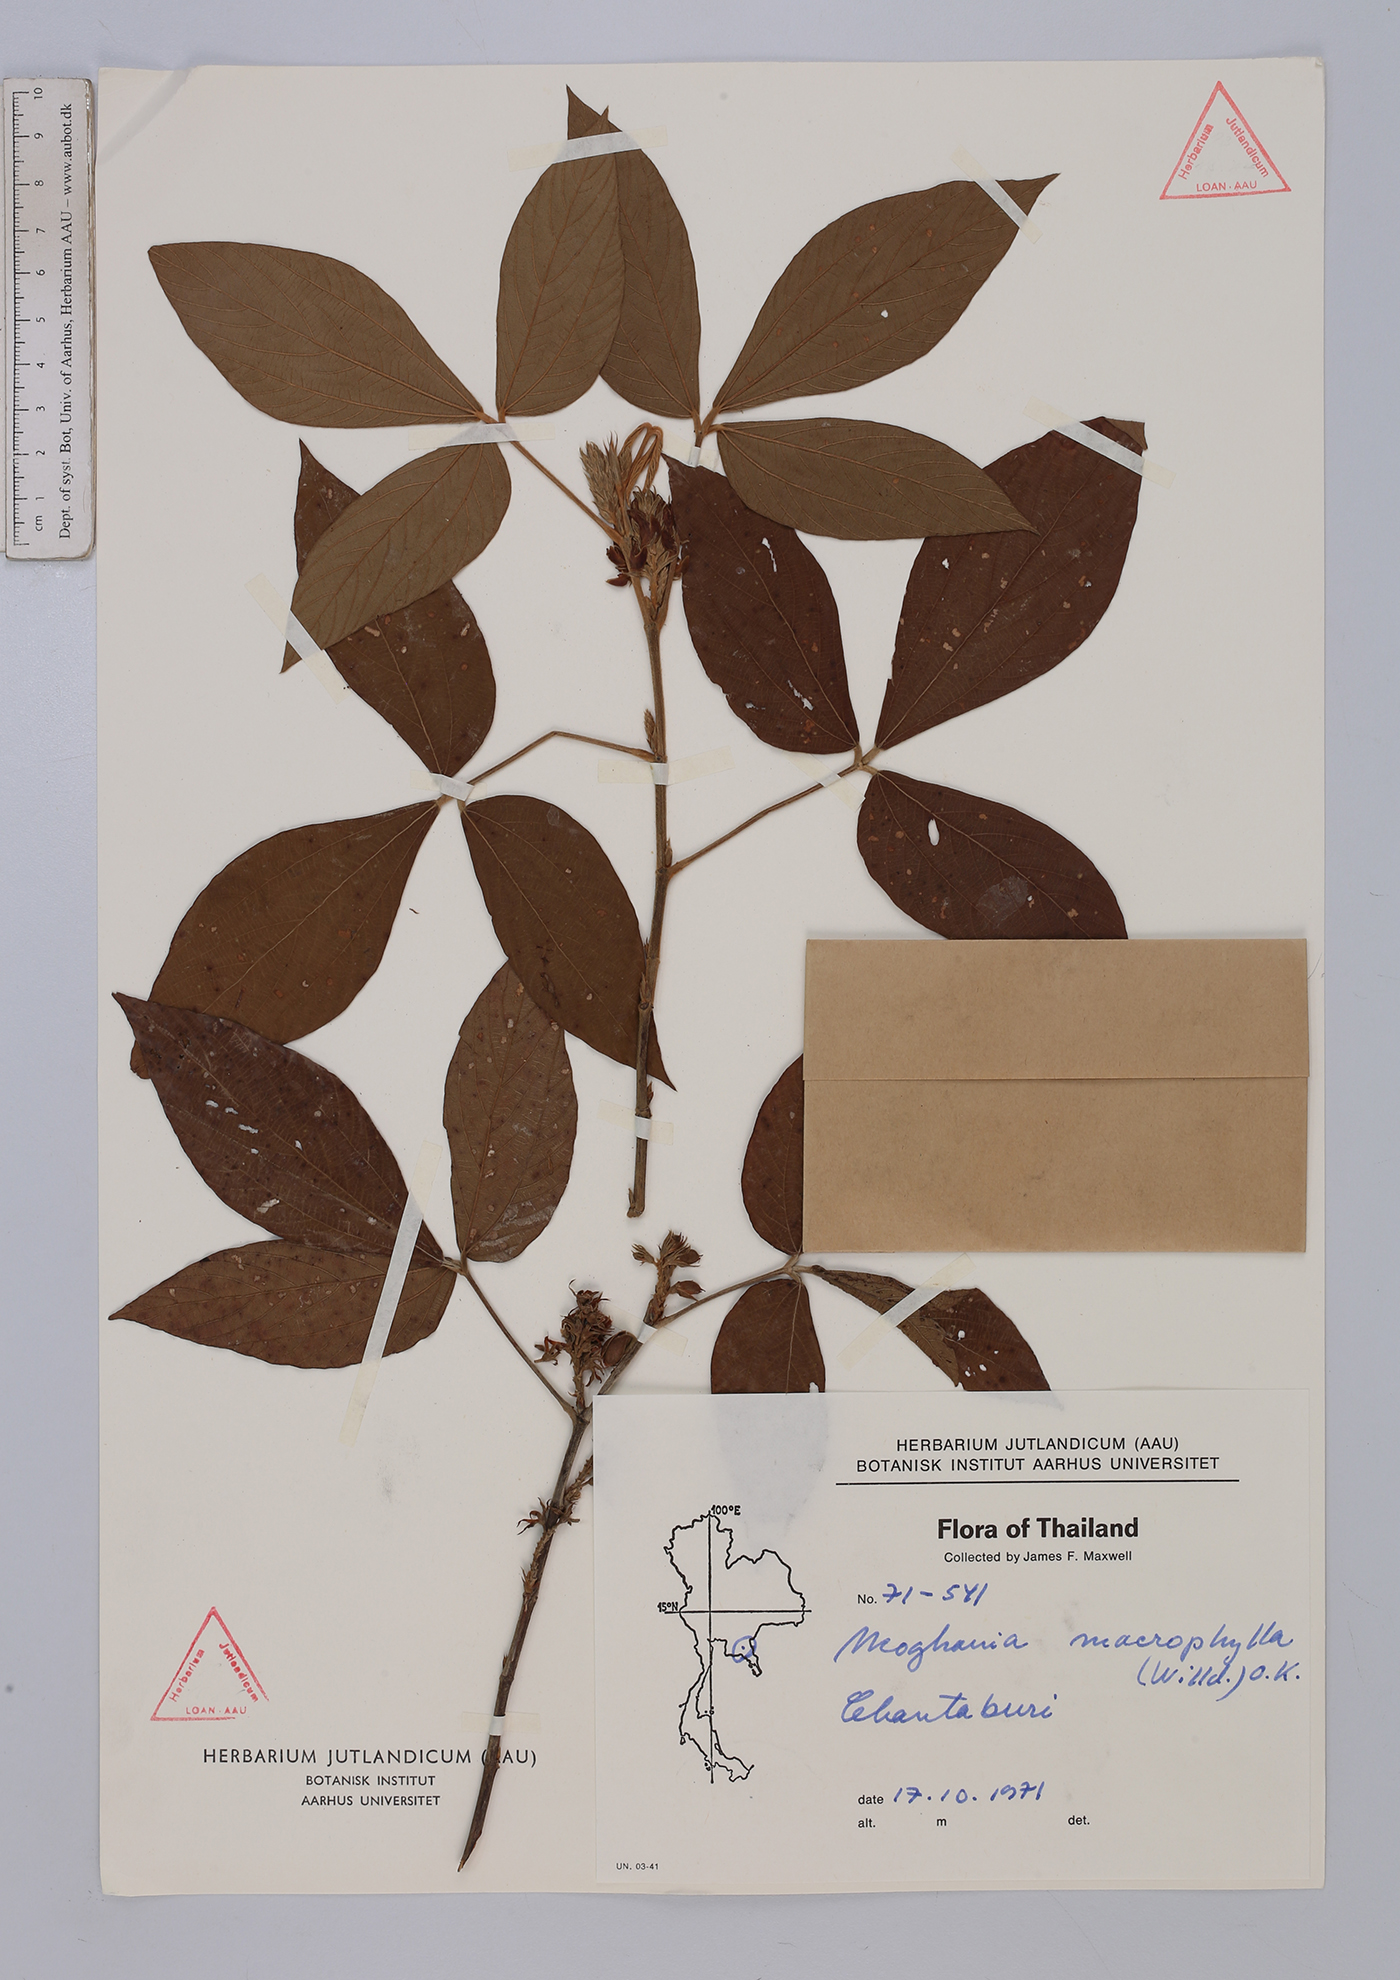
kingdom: Plantae
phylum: Tracheophyta
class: Magnoliopsida
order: Fabales
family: Fabaceae
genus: Flemingia
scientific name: Flemingia macrophylla
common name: Flemingia
